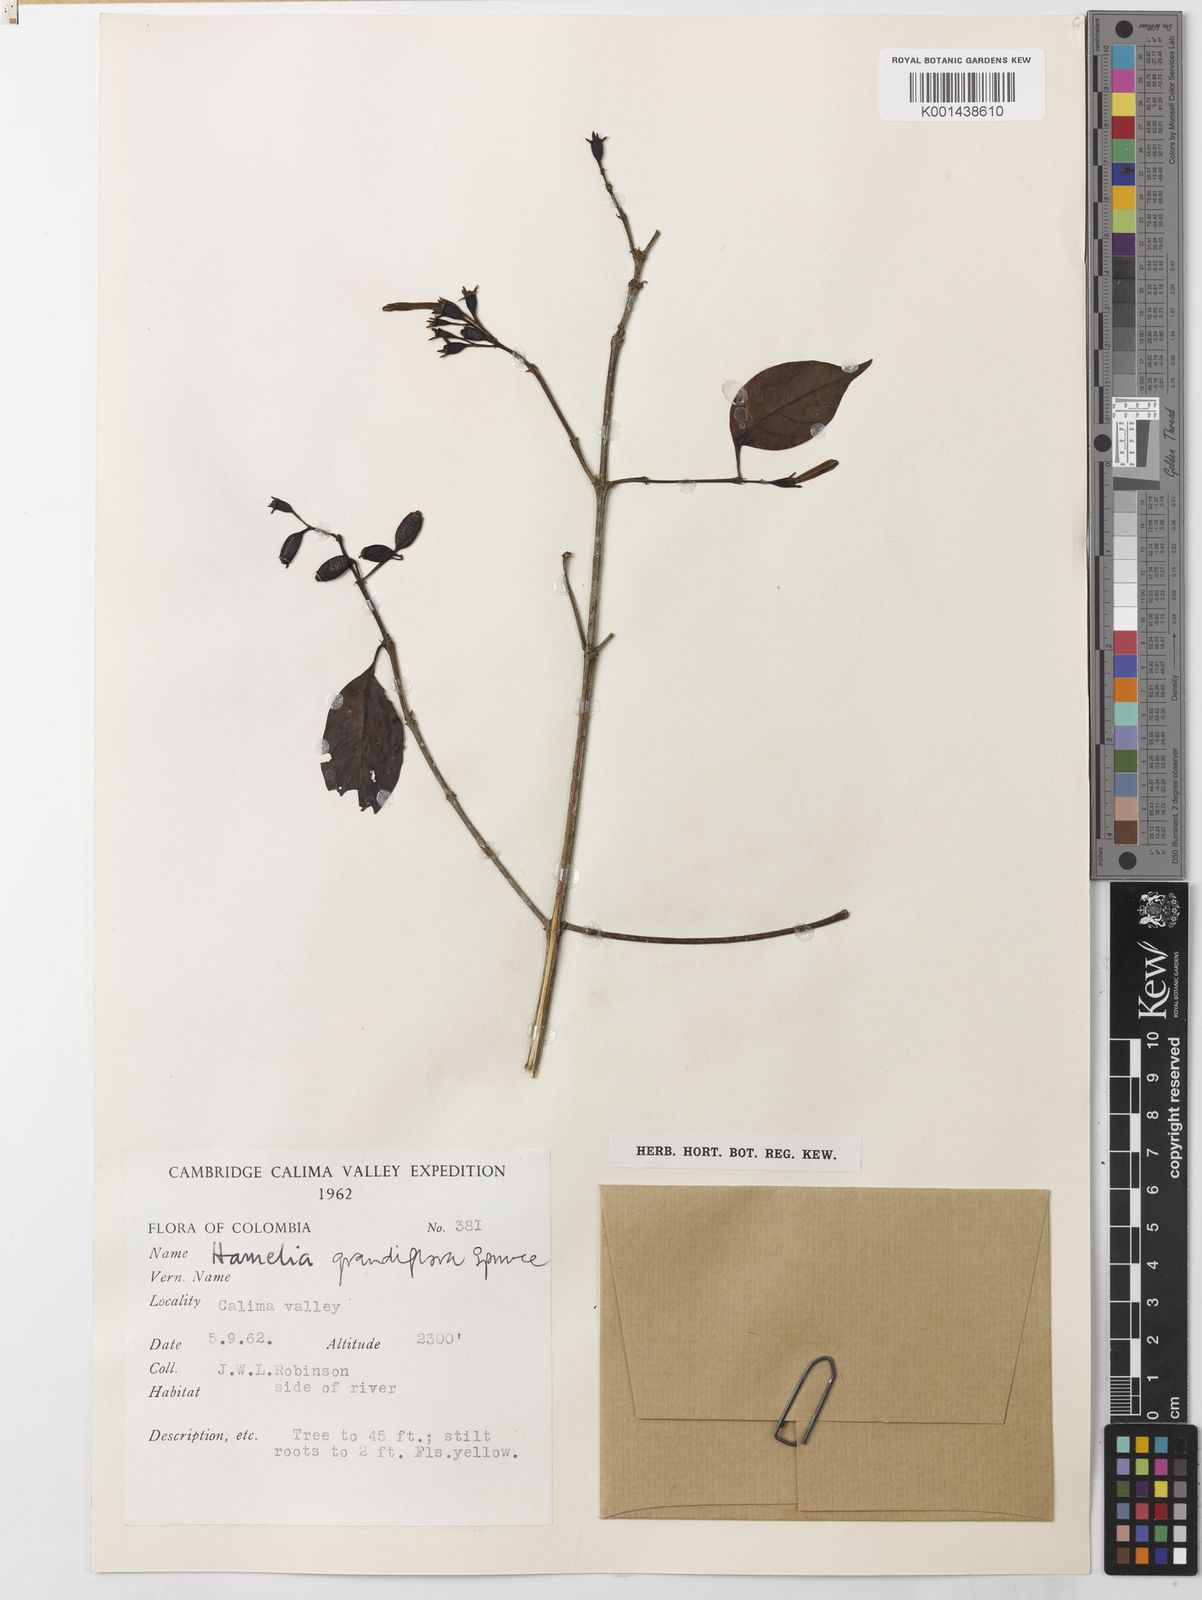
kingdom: Plantae
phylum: Tracheophyta
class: Magnoliopsida
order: Gentianales
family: Rubiaceae
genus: Hamelia
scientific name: Hamelia macrantha
